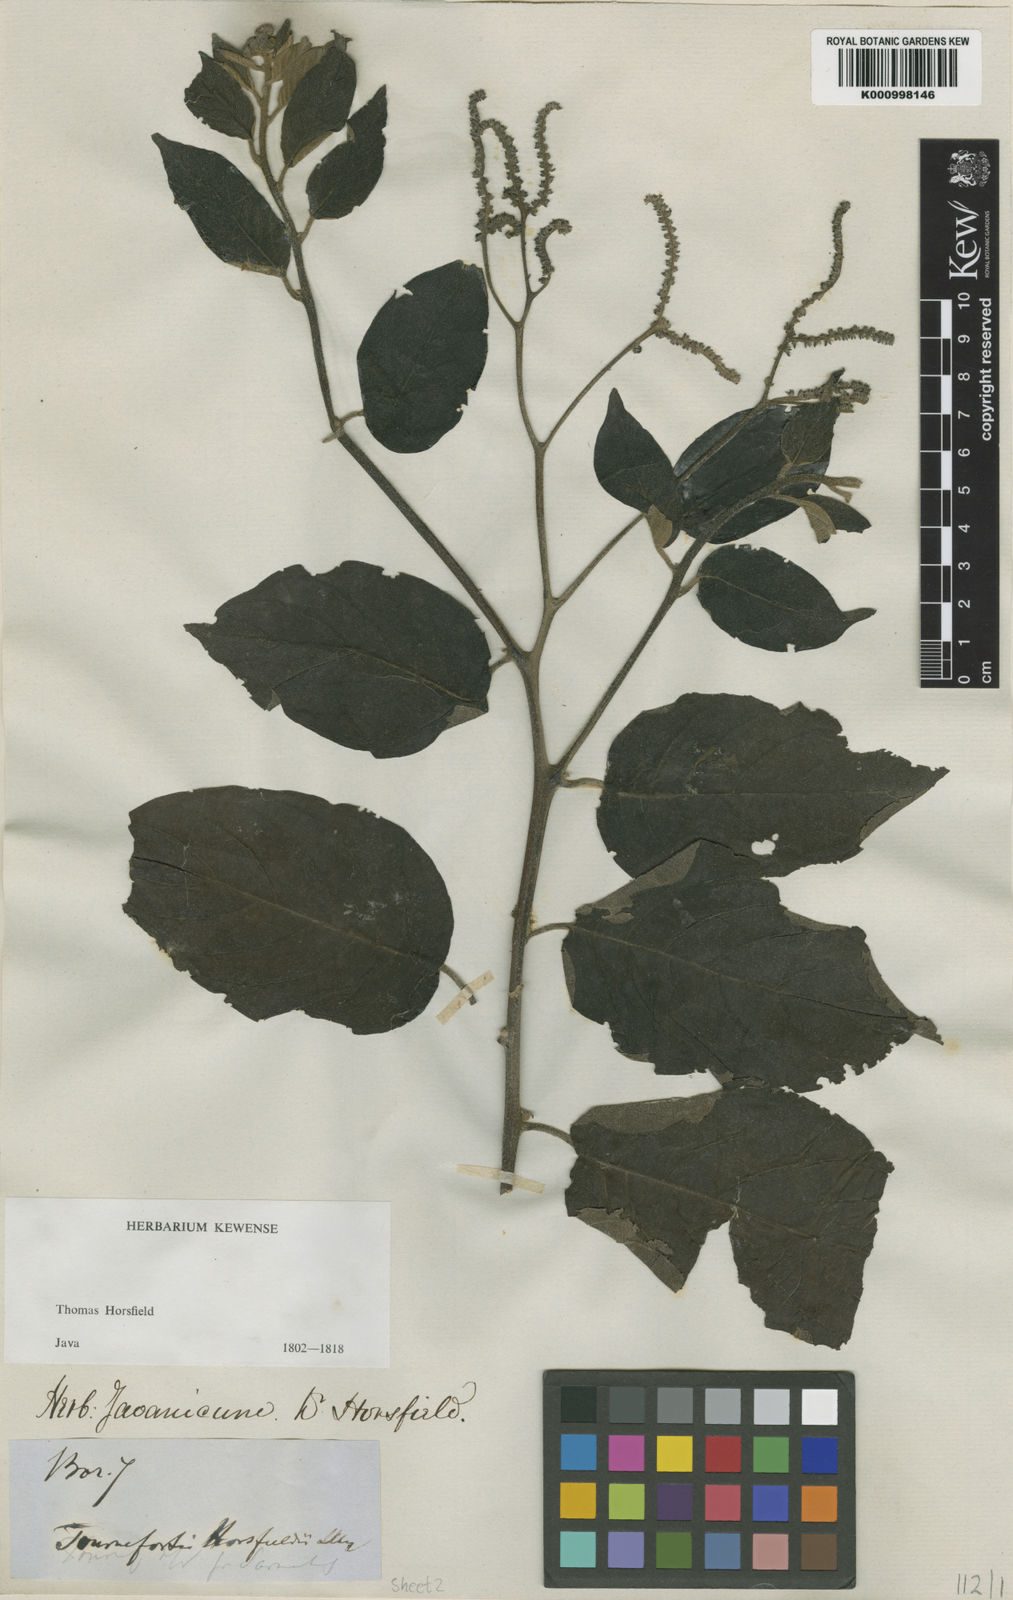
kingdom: Plantae
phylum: Tracheophyta
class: Magnoliopsida
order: Boraginales
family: Heliotropiaceae
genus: Heliotropium
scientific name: Heliotropium sarmentosum
